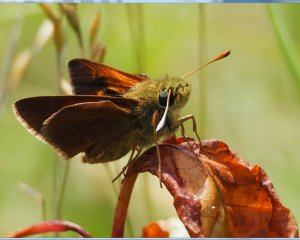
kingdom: Animalia
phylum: Arthropoda
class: Insecta
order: Lepidoptera
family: Hesperiidae
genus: Polites
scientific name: Polites themistocles
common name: Tawny-edged Skipper
